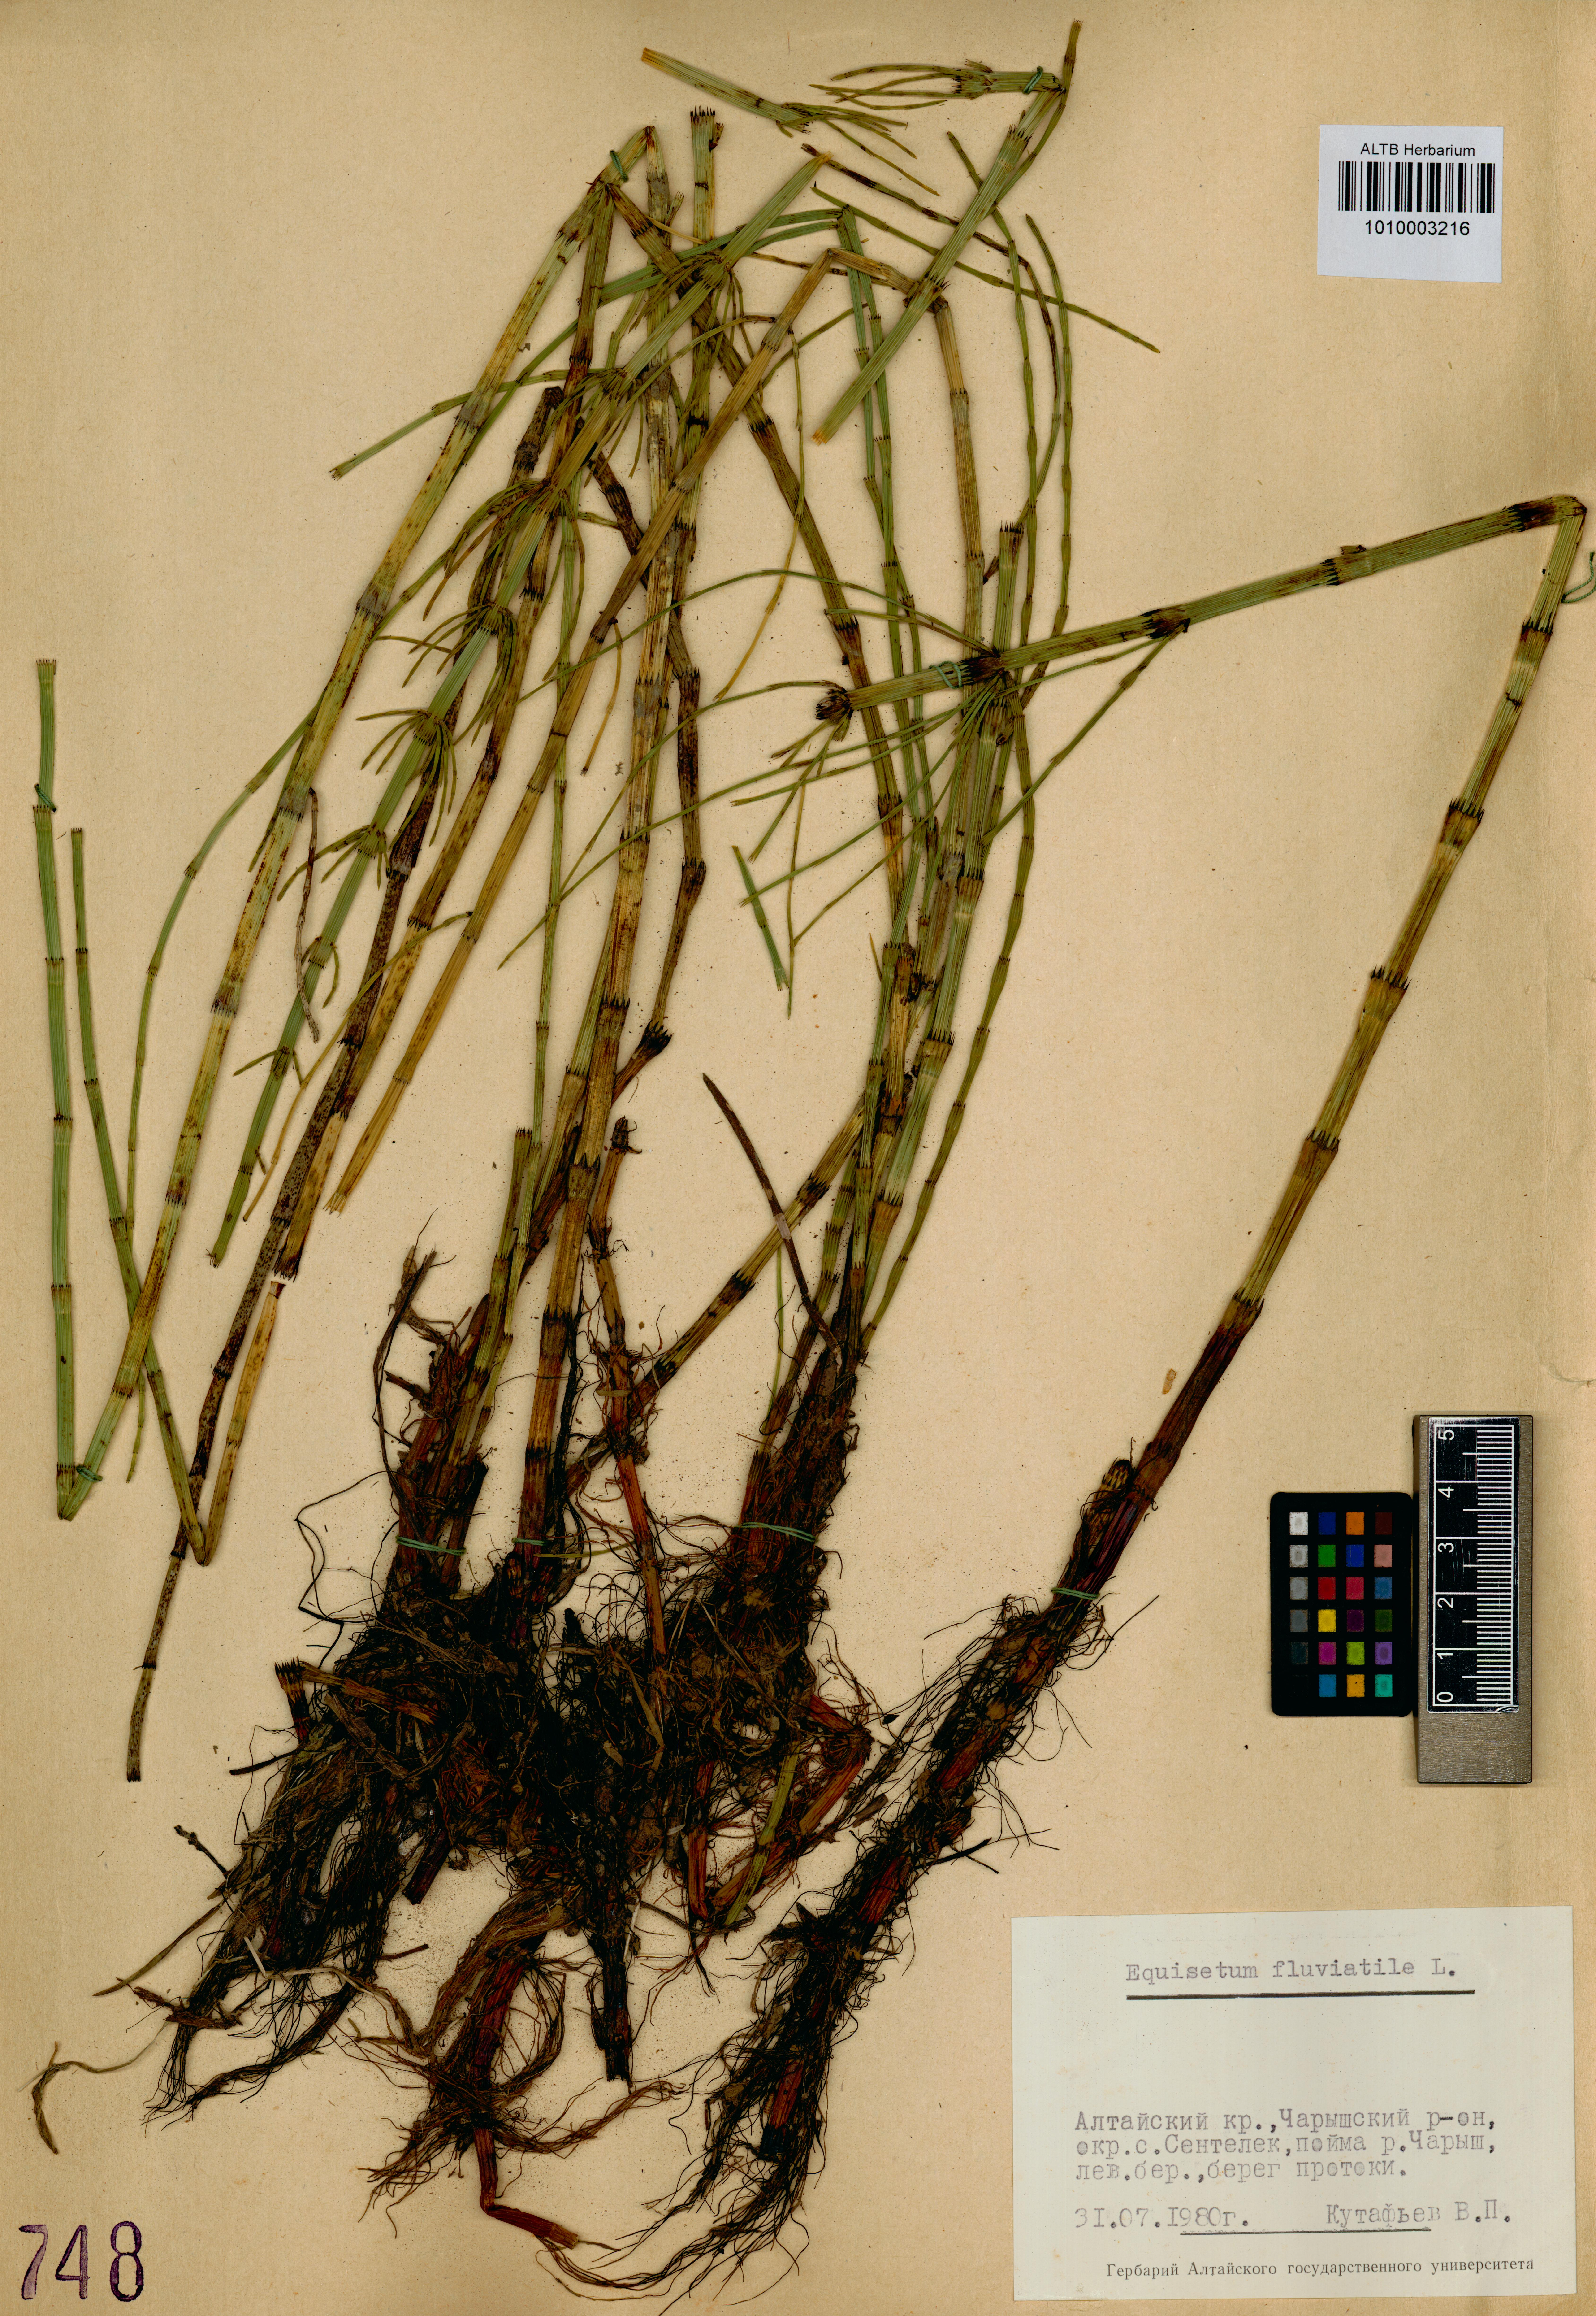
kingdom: Plantae
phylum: Tracheophyta
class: Polypodiopsida
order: Equisetales
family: Equisetaceae
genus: Equisetum
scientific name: Equisetum fluviatile
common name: Water horsetail
